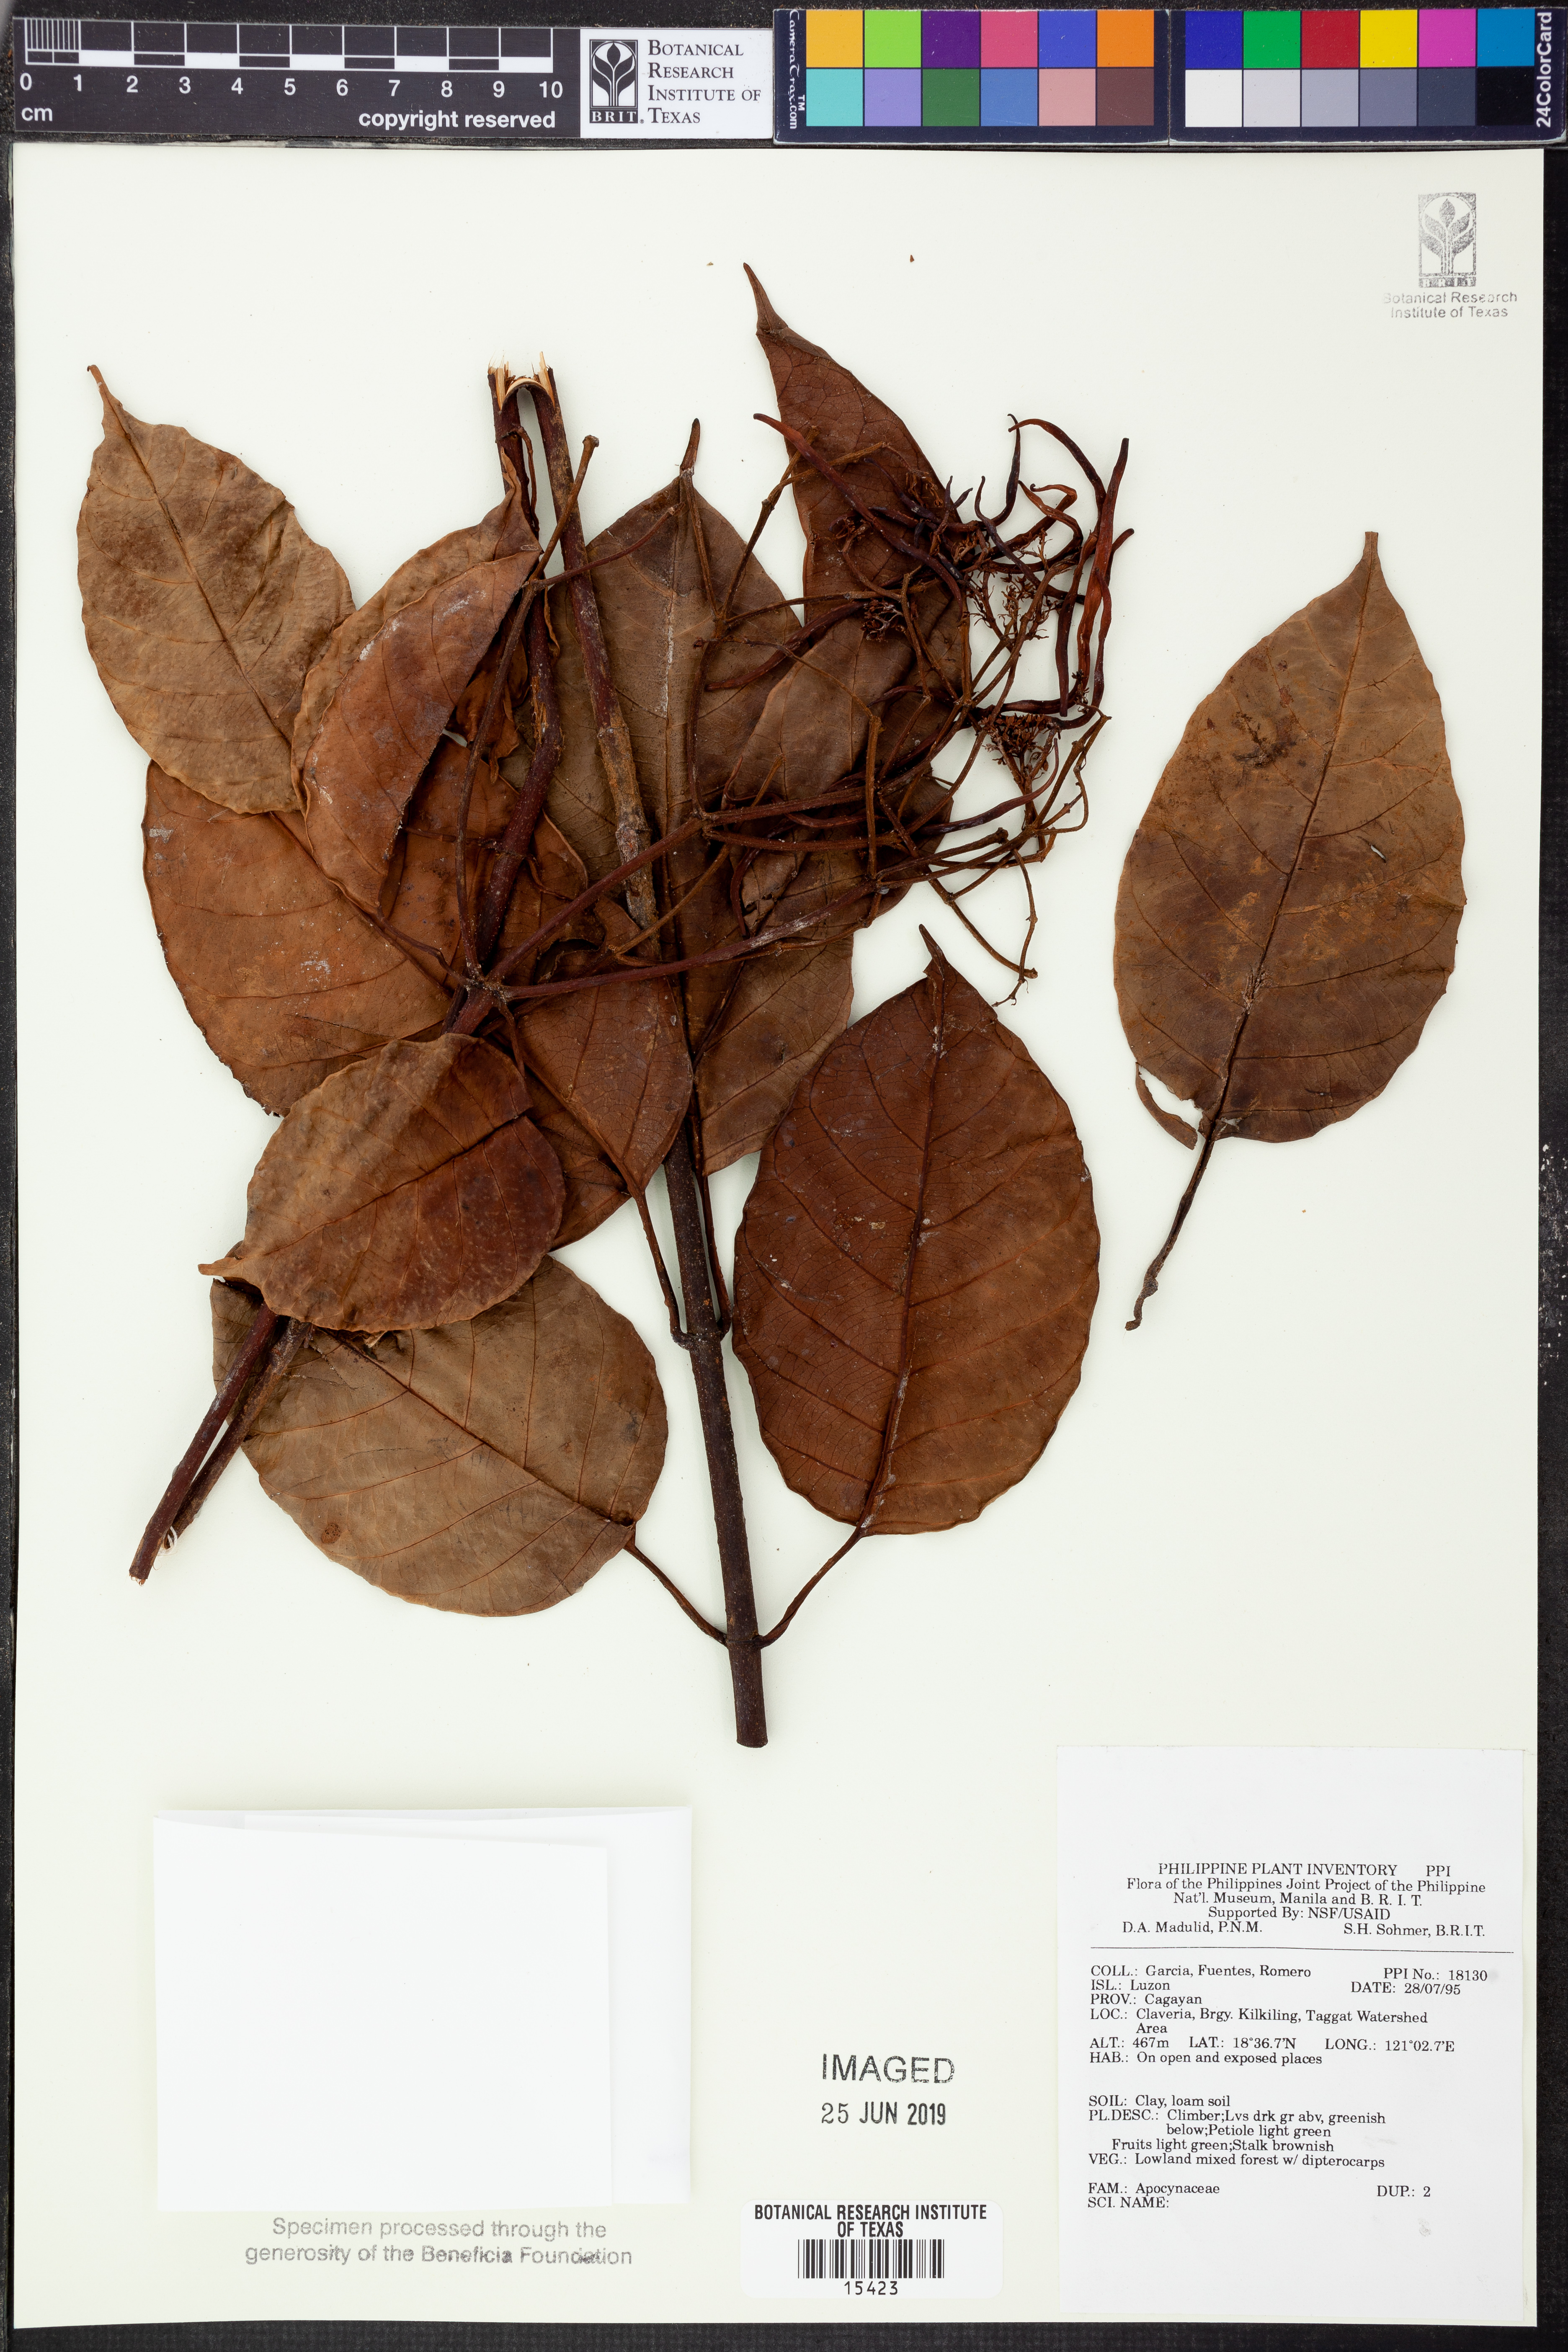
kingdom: Plantae
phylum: Tracheophyta
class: Magnoliopsida
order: Gentianales
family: Apocynaceae
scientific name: Apocynaceae
